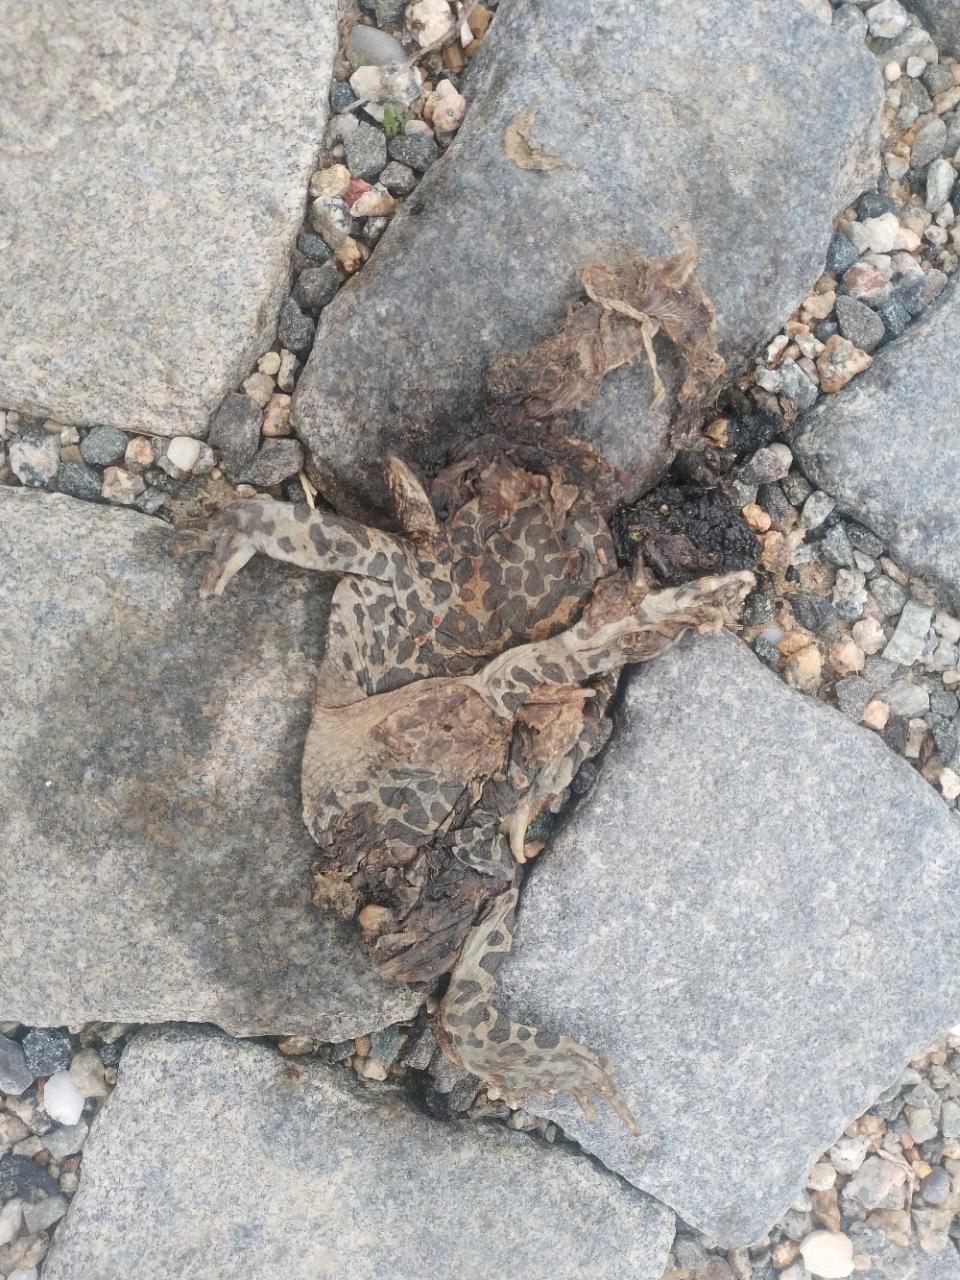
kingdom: Animalia
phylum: Chordata
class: Amphibia
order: Anura
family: Bufonidae
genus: Bufotes
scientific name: Bufotes viridis
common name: European green toad
